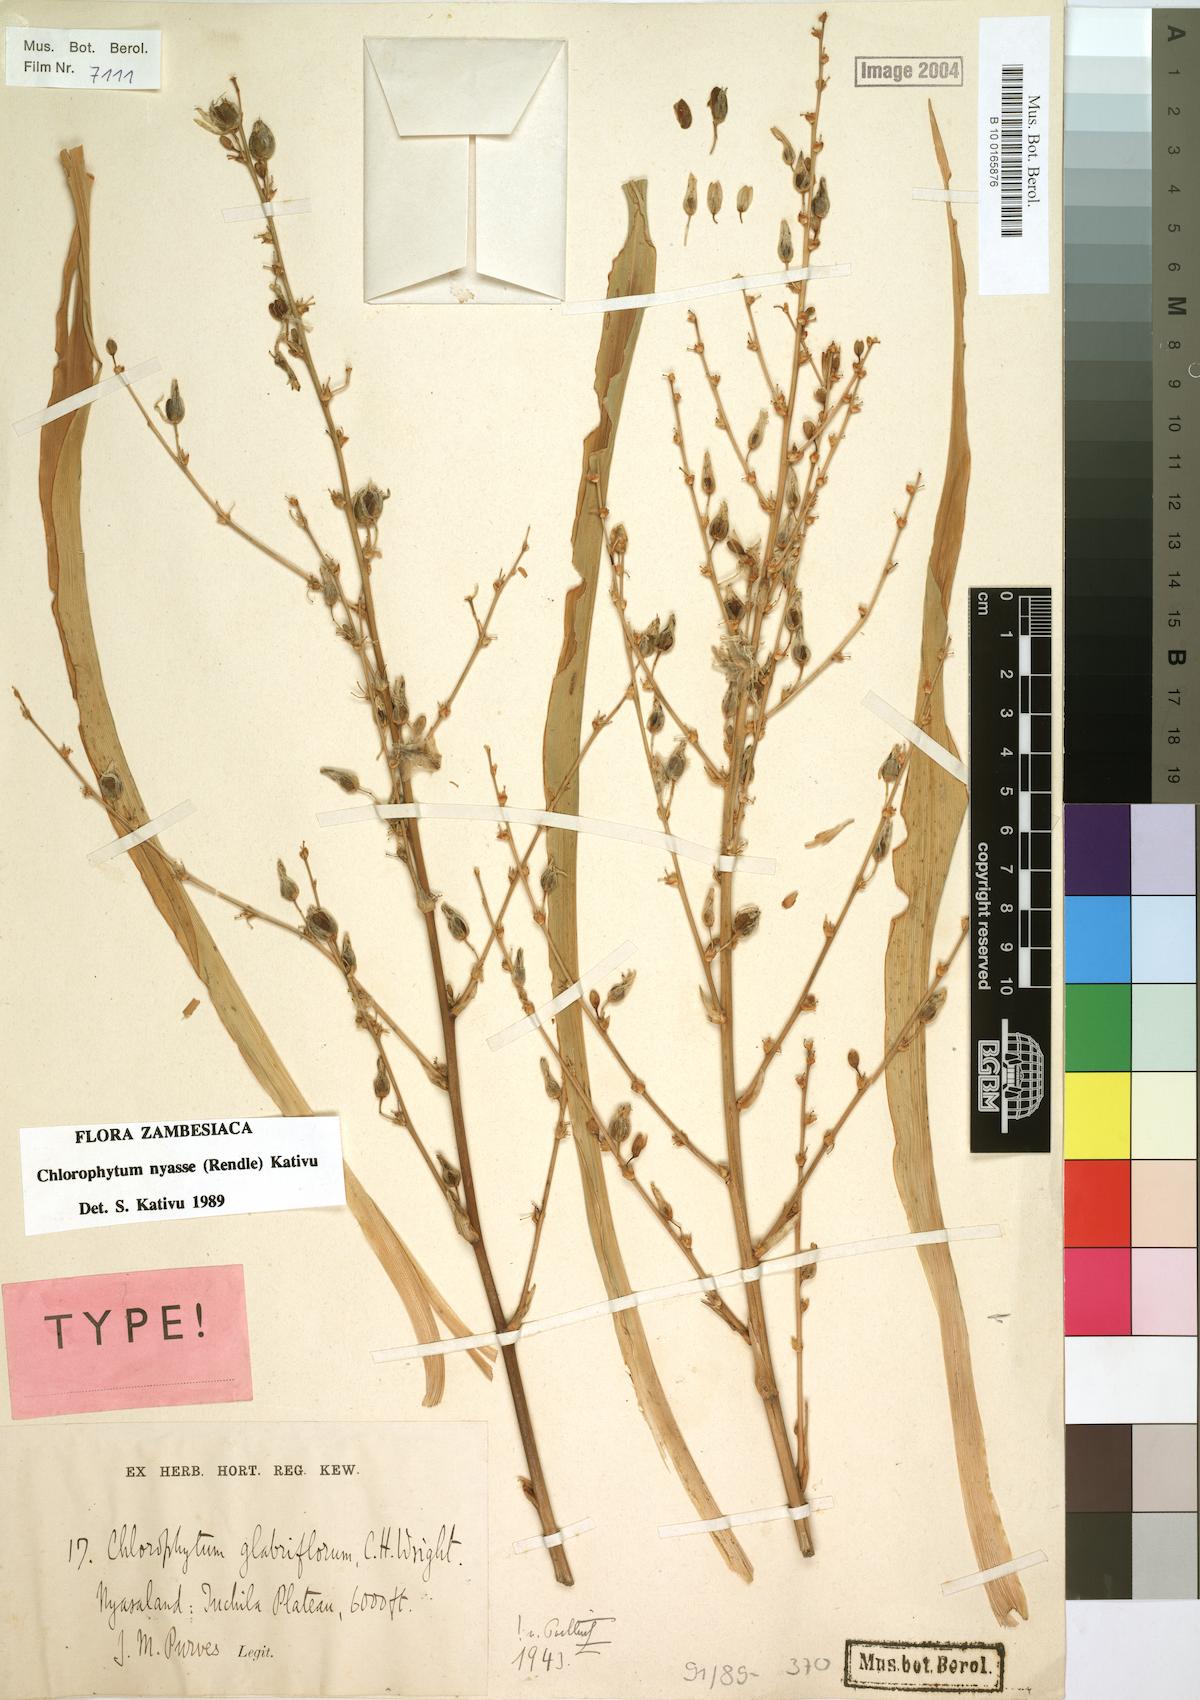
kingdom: Plantae
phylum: Tracheophyta
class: Liliopsida
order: Asparagales
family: Asparagaceae
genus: Chlorophytum
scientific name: Chlorophytum nyasae
